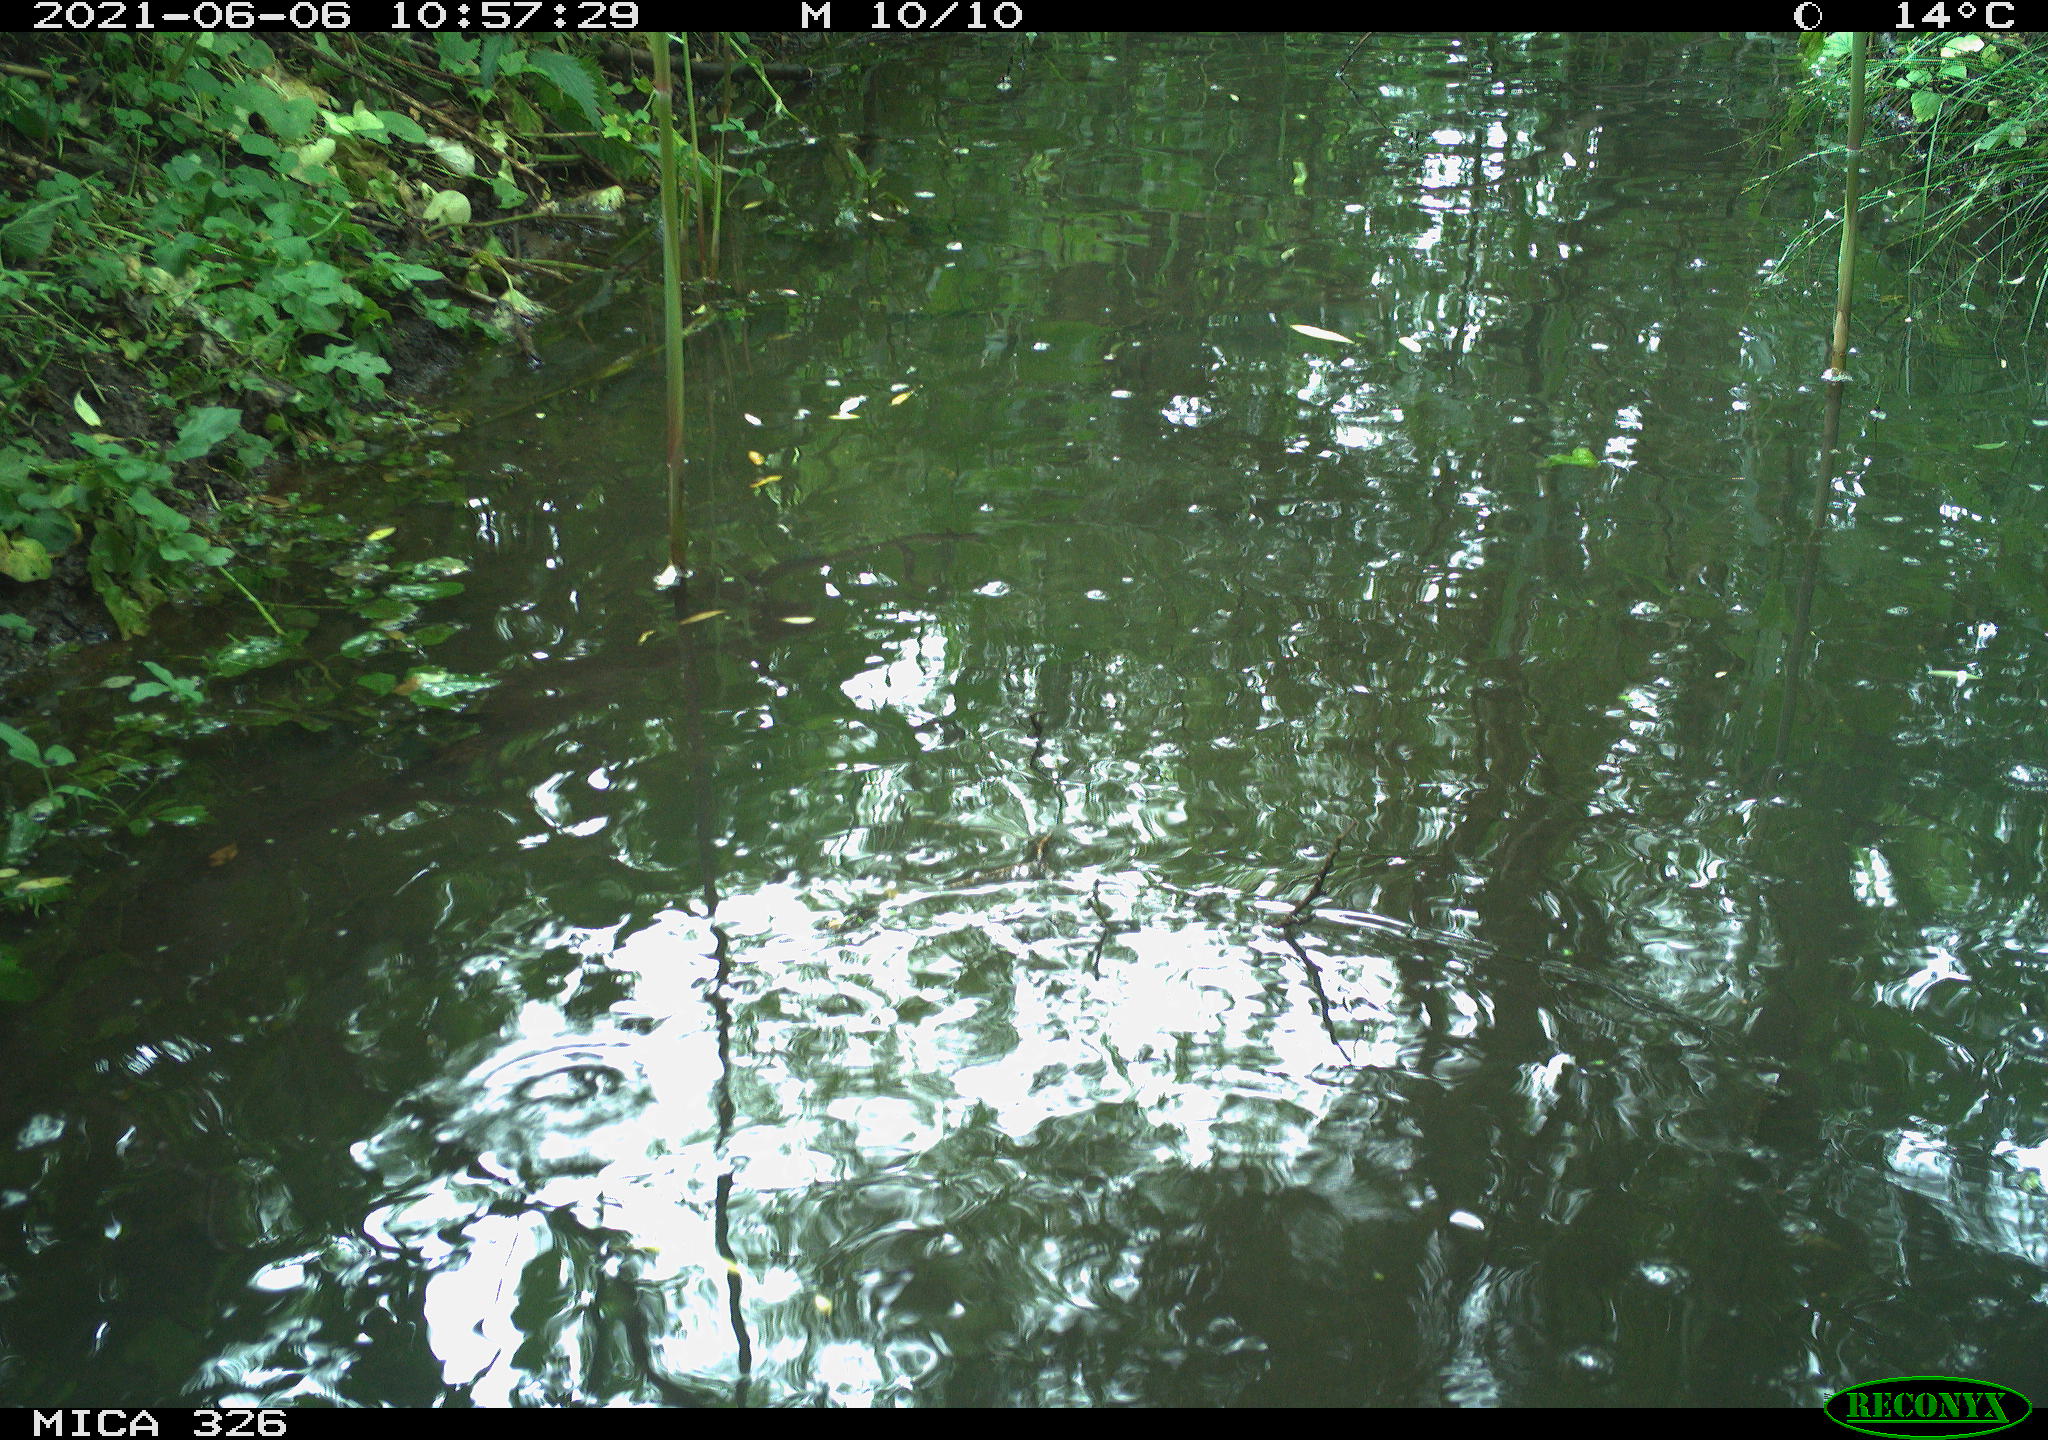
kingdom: Animalia
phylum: Chordata
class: Aves
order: Anseriformes
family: Anatidae
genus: Anas
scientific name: Anas platyrhynchos
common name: Mallard
